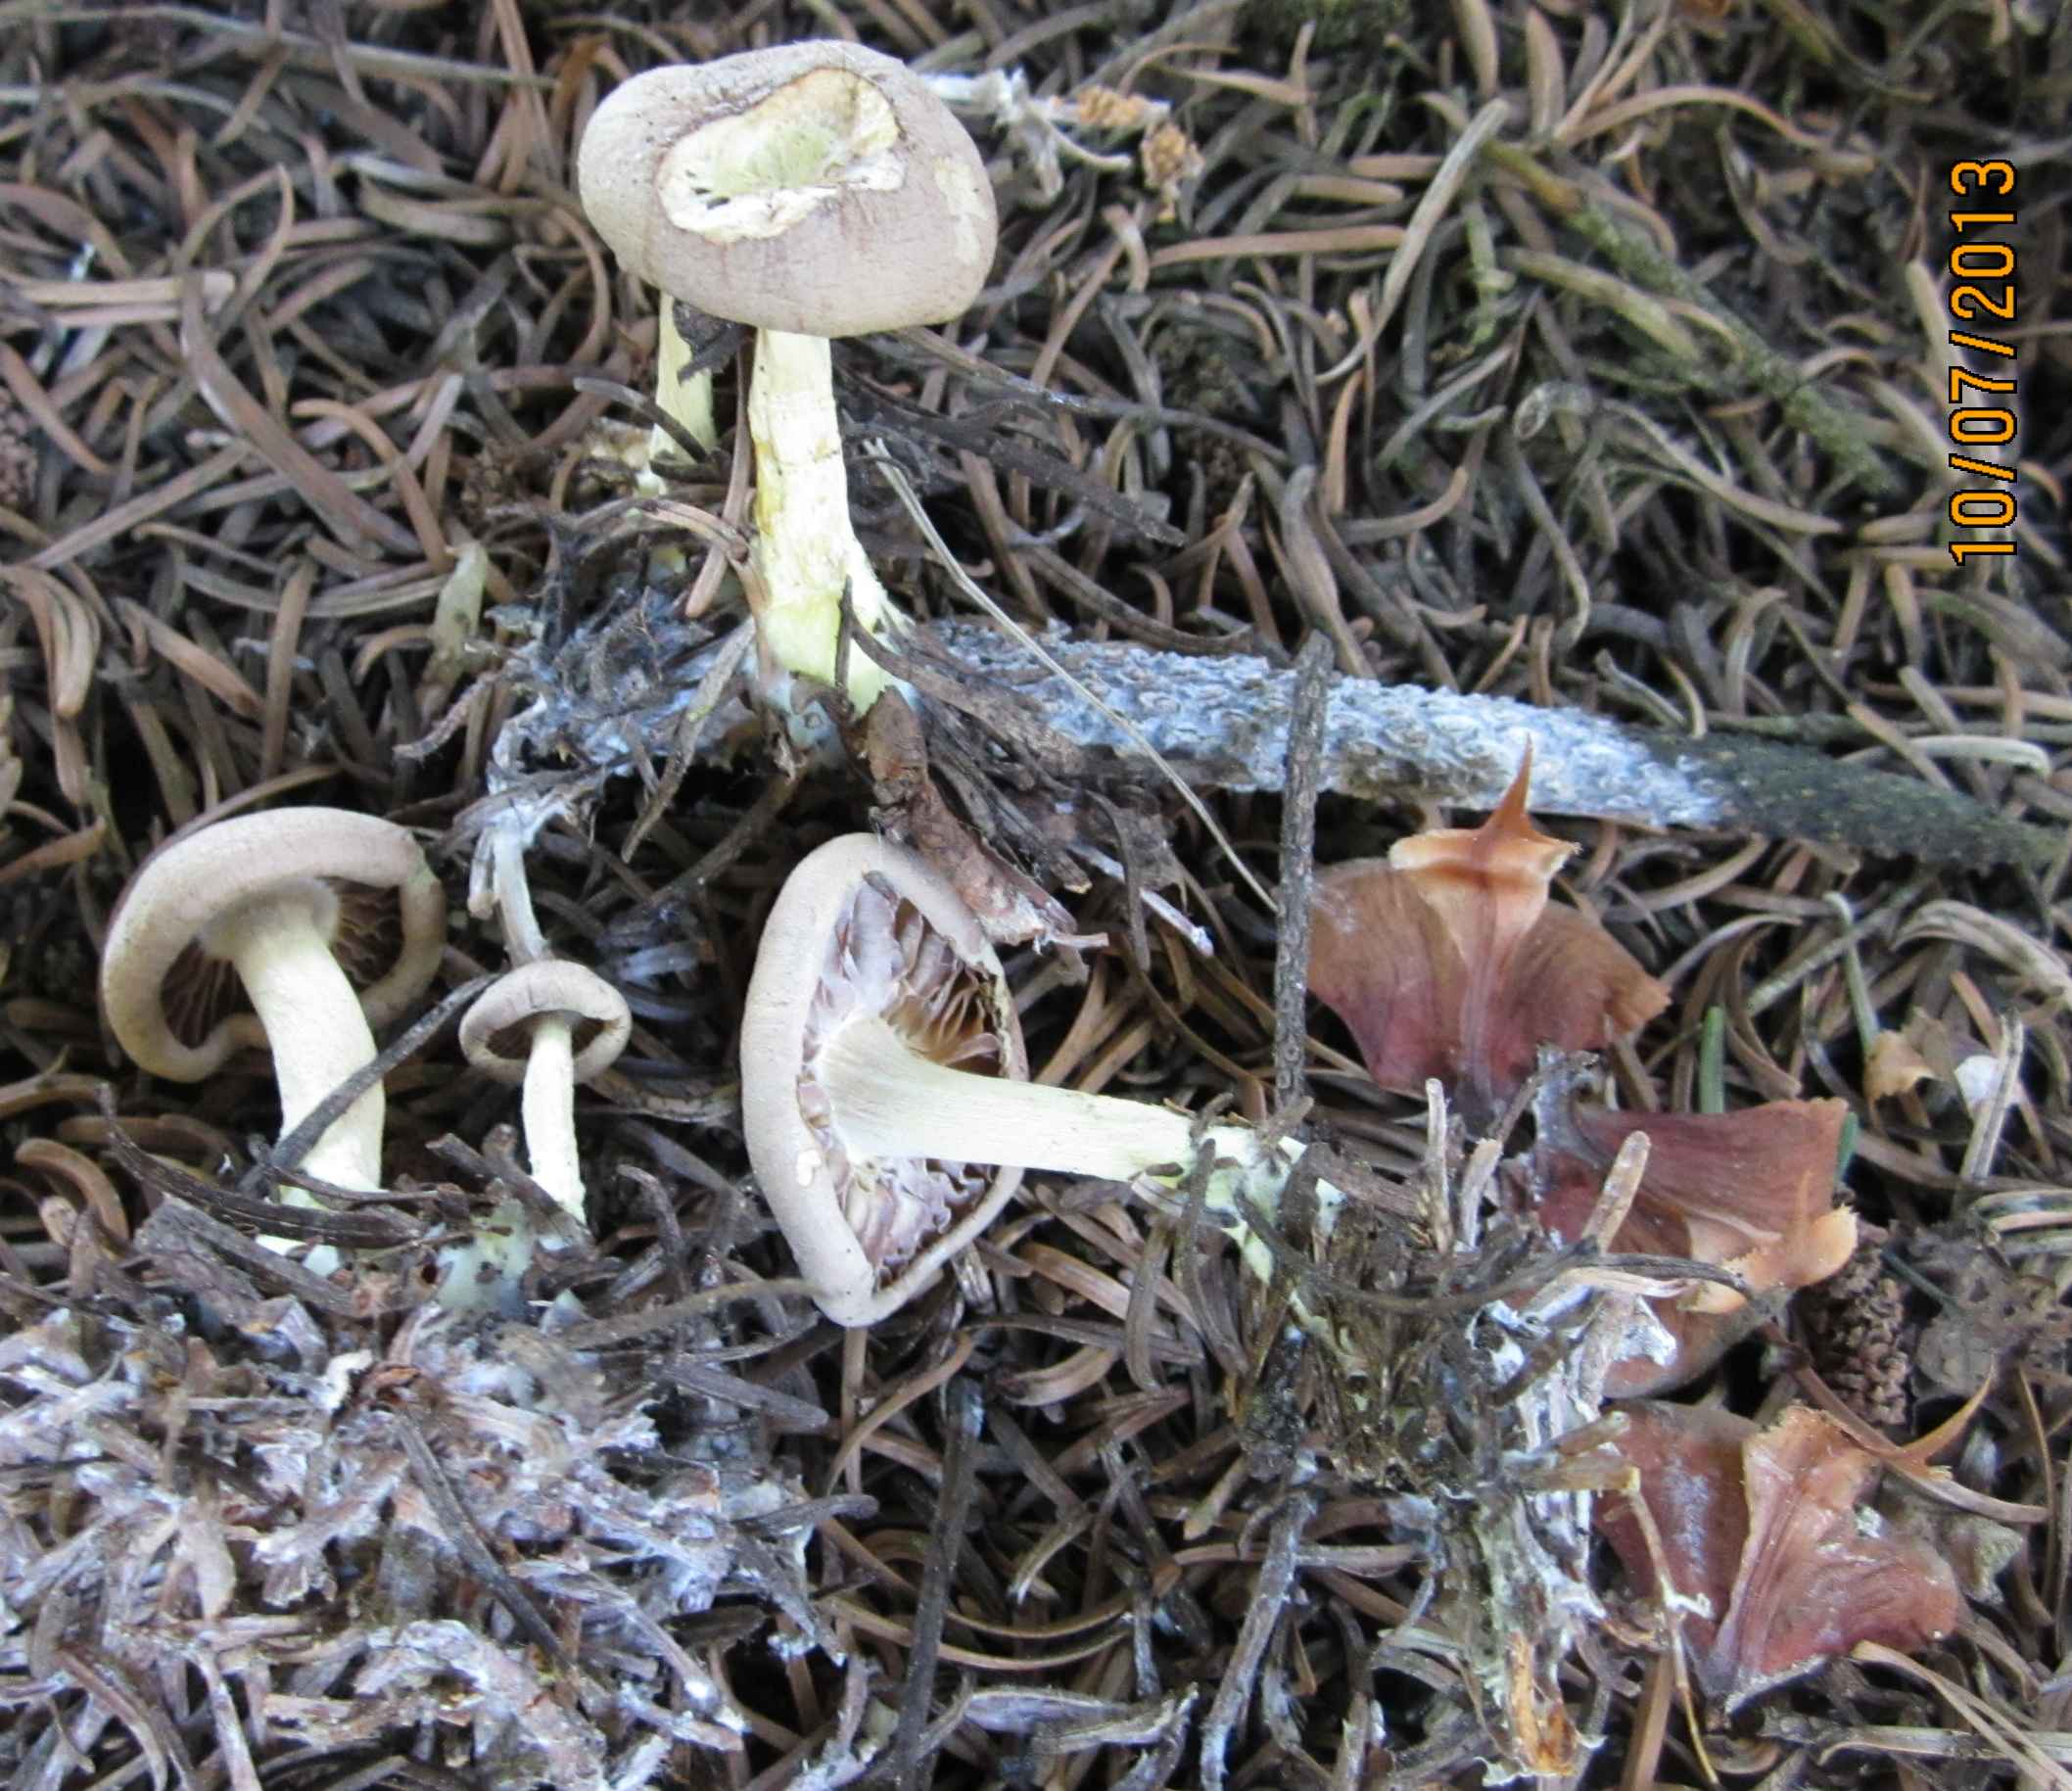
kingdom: Fungi
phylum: Basidiomycota
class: Agaricomycetes
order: Agaricales
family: Omphalotaceae
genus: Collybiopsis
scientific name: Collybiopsis peronata
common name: bestøvlet fladhat
